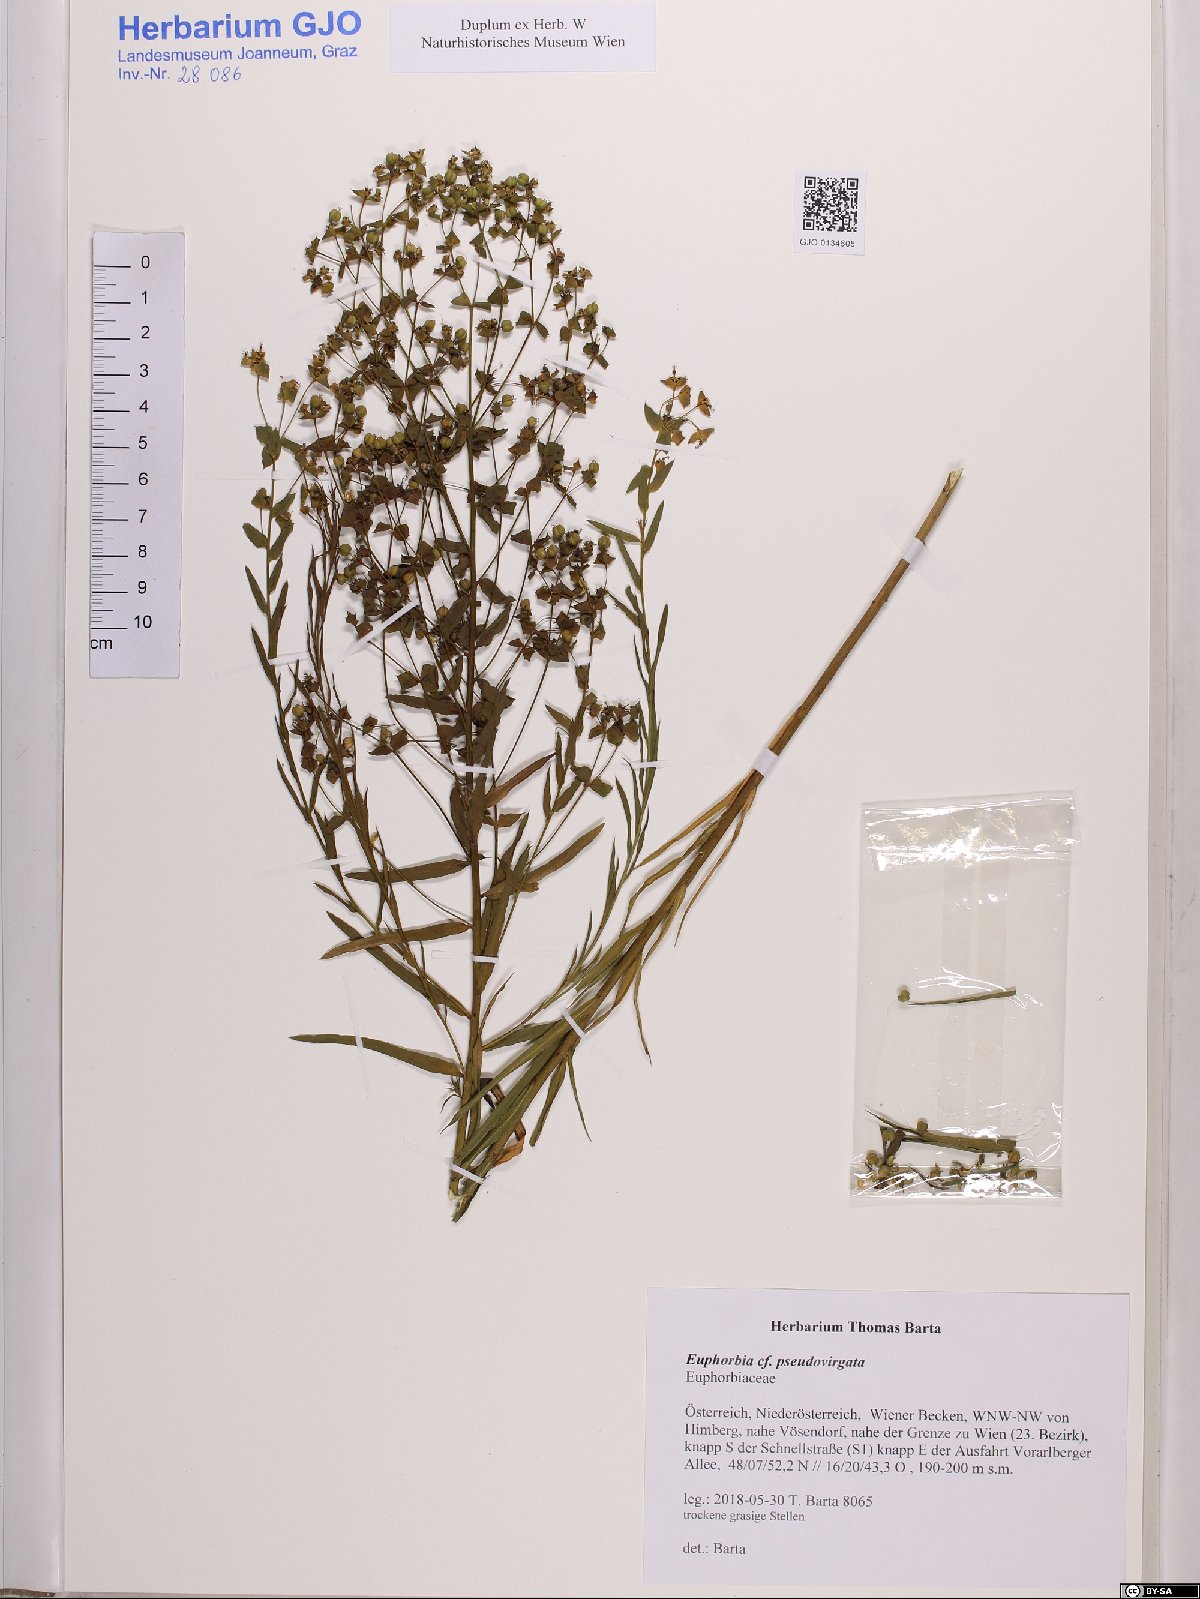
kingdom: Plantae
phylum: Tracheophyta
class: Magnoliopsida
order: Malpighiales
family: Euphorbiaceae
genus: Euphorbia
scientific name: Euphorbia virgata
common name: Leafy spurge
